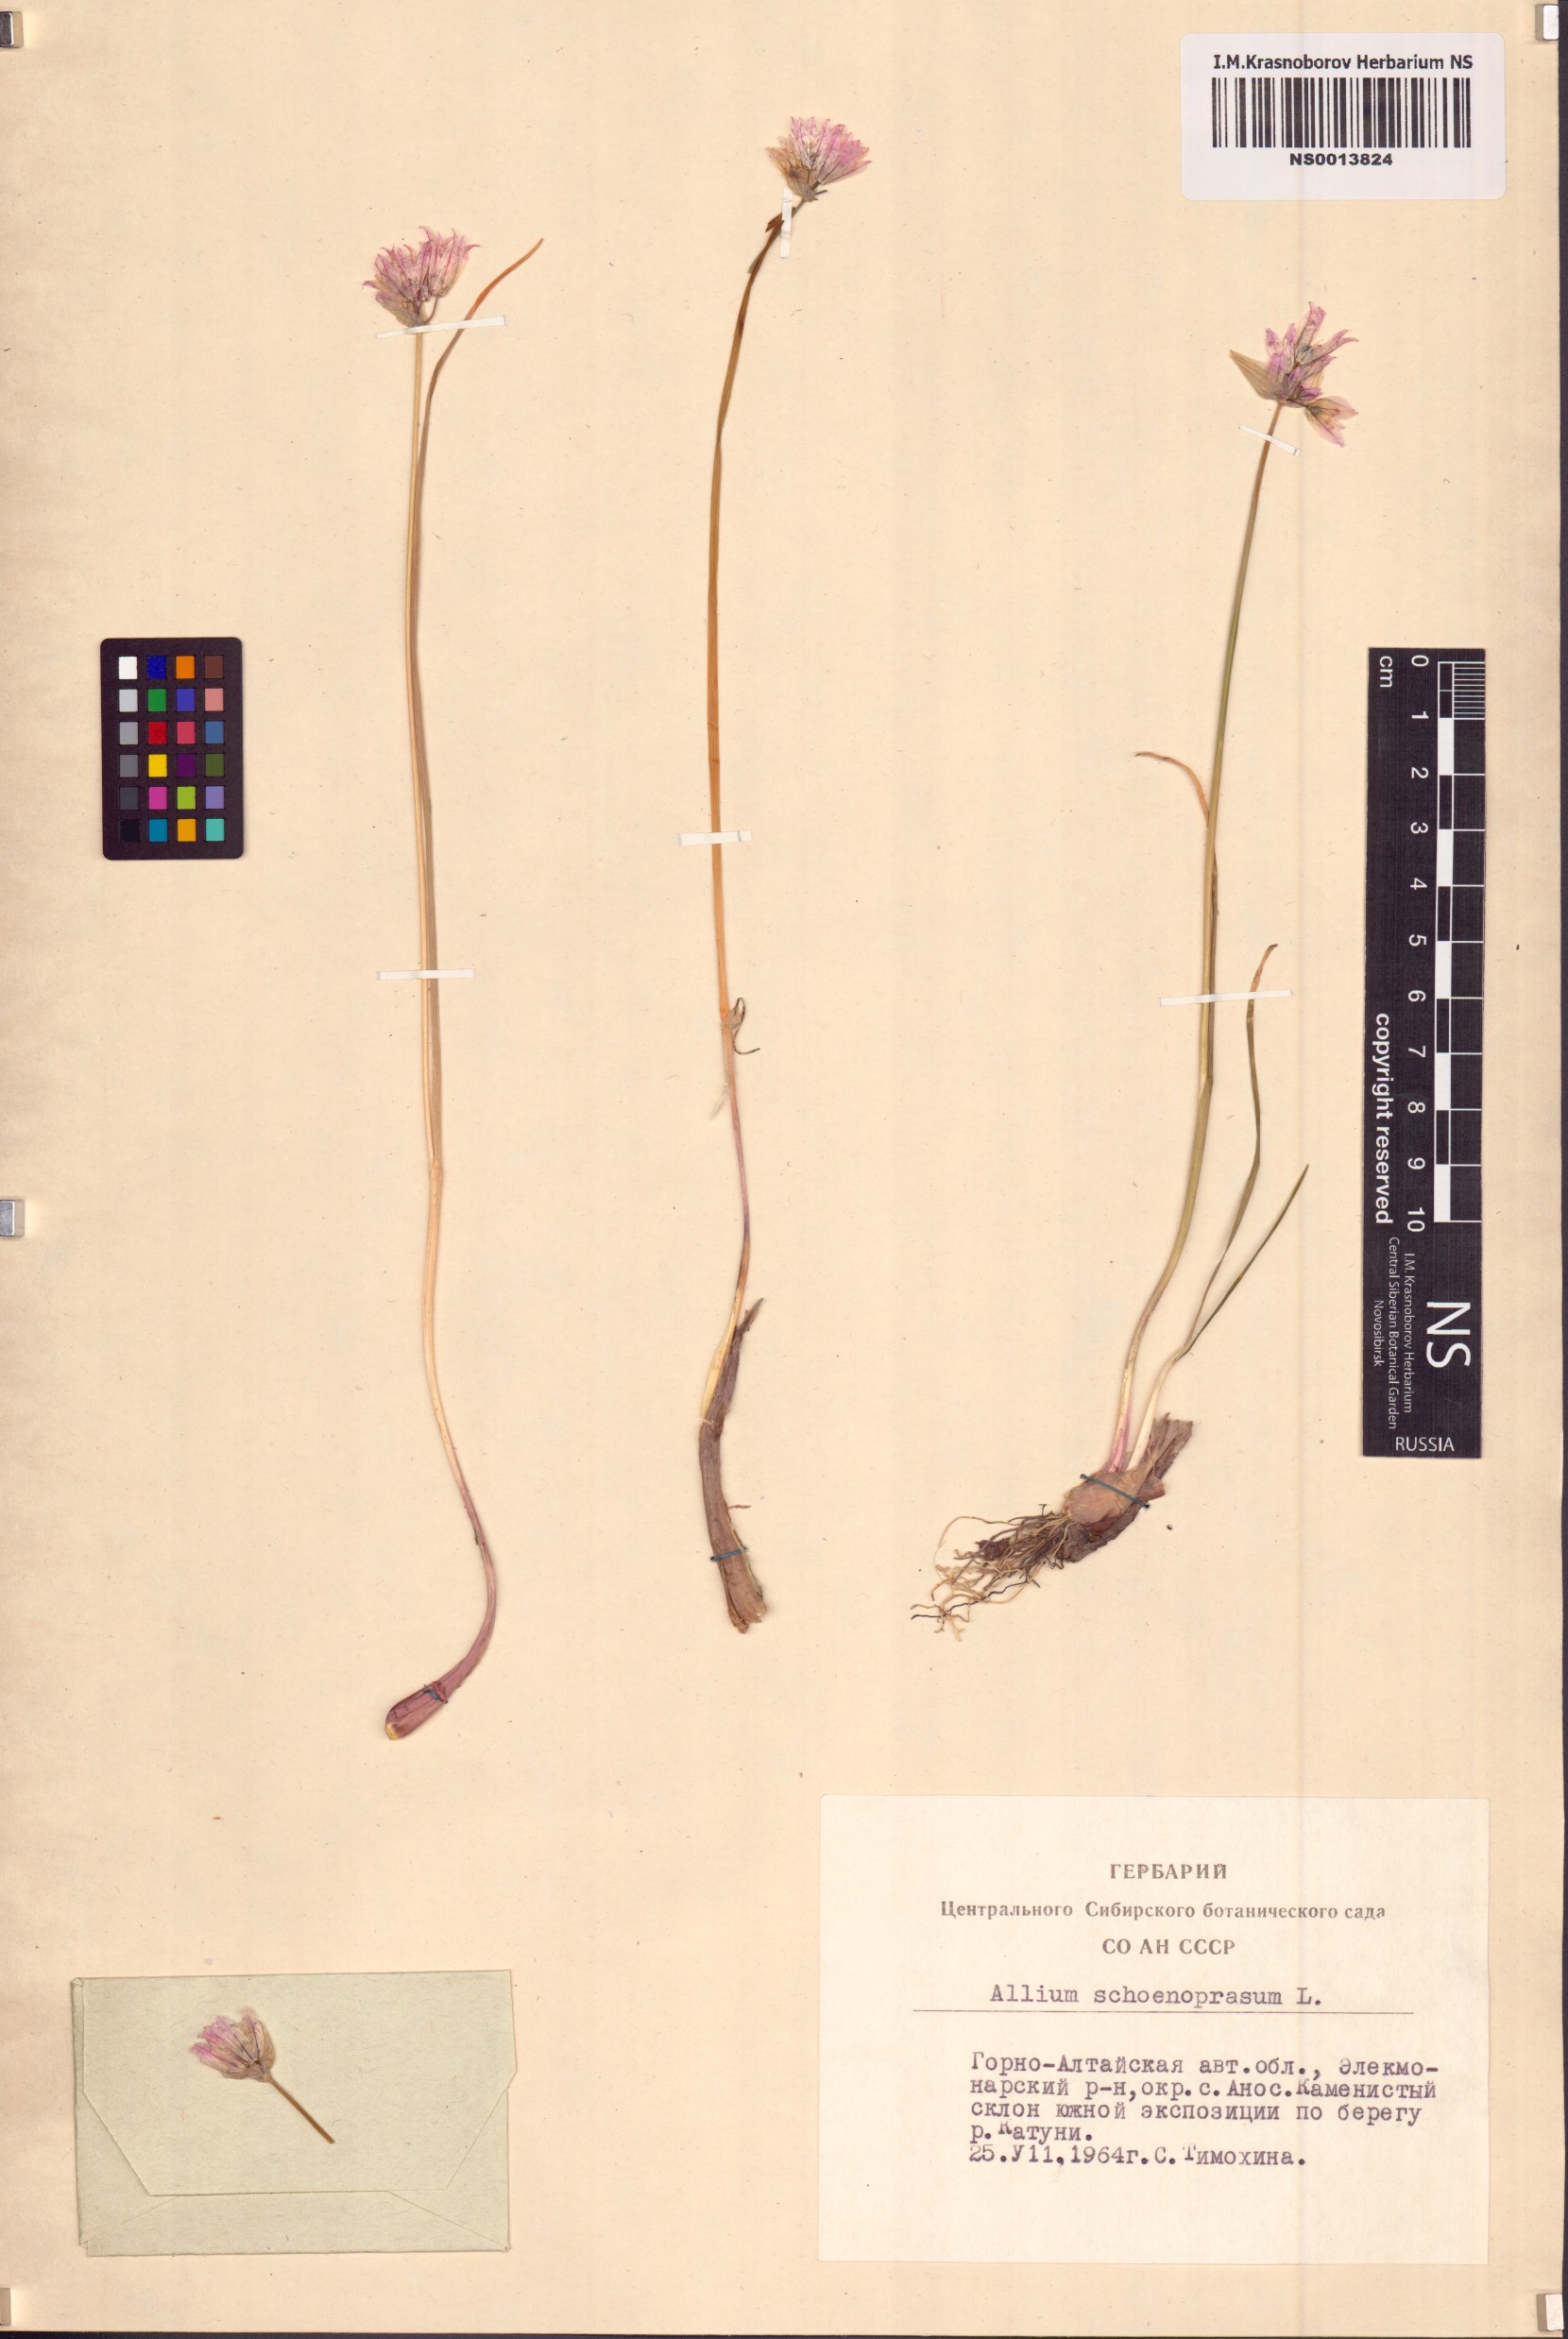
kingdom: Plantae
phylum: Tracheophyta
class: Liliopsida
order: Asparagales
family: Amaryllidaceae
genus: Allium
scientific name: Allium schoenoprasum
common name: Chives
